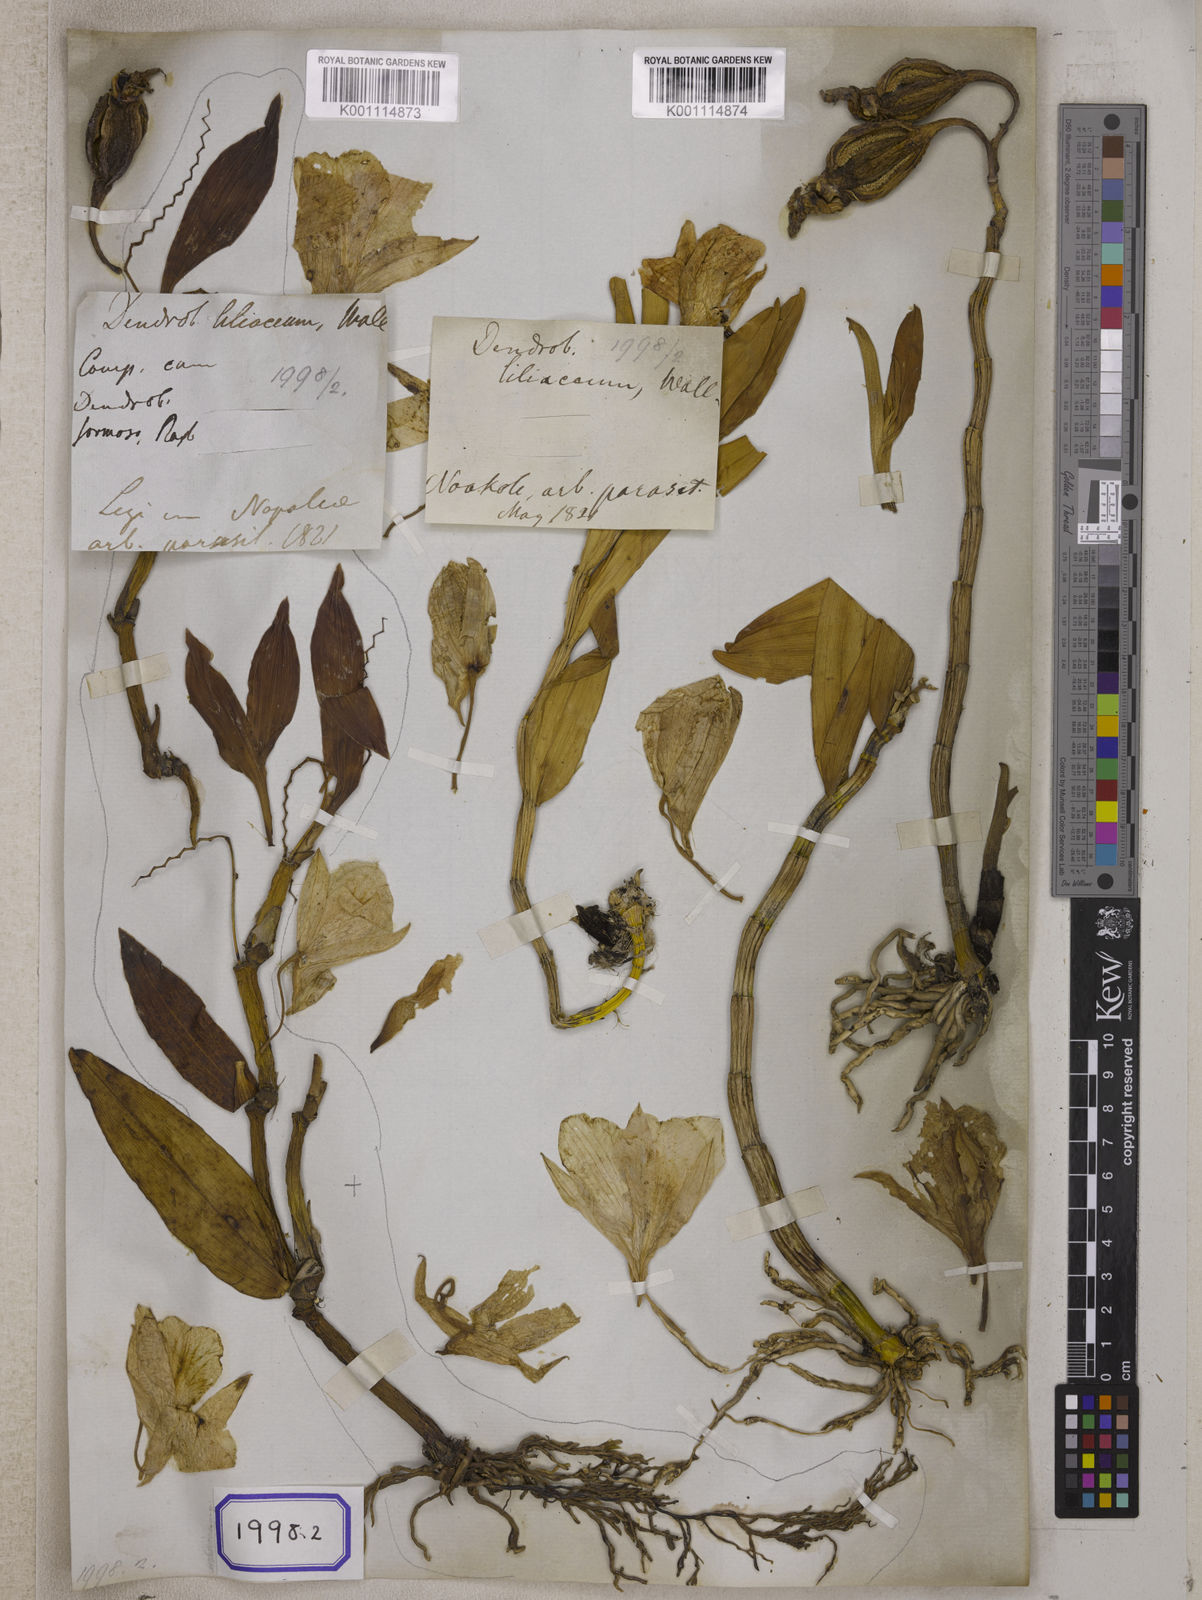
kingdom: Plantae
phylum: Tracheophyta
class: Liliopsida
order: Asparagales
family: Orchidaceae
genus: Dendrobium
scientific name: Dendrobium
